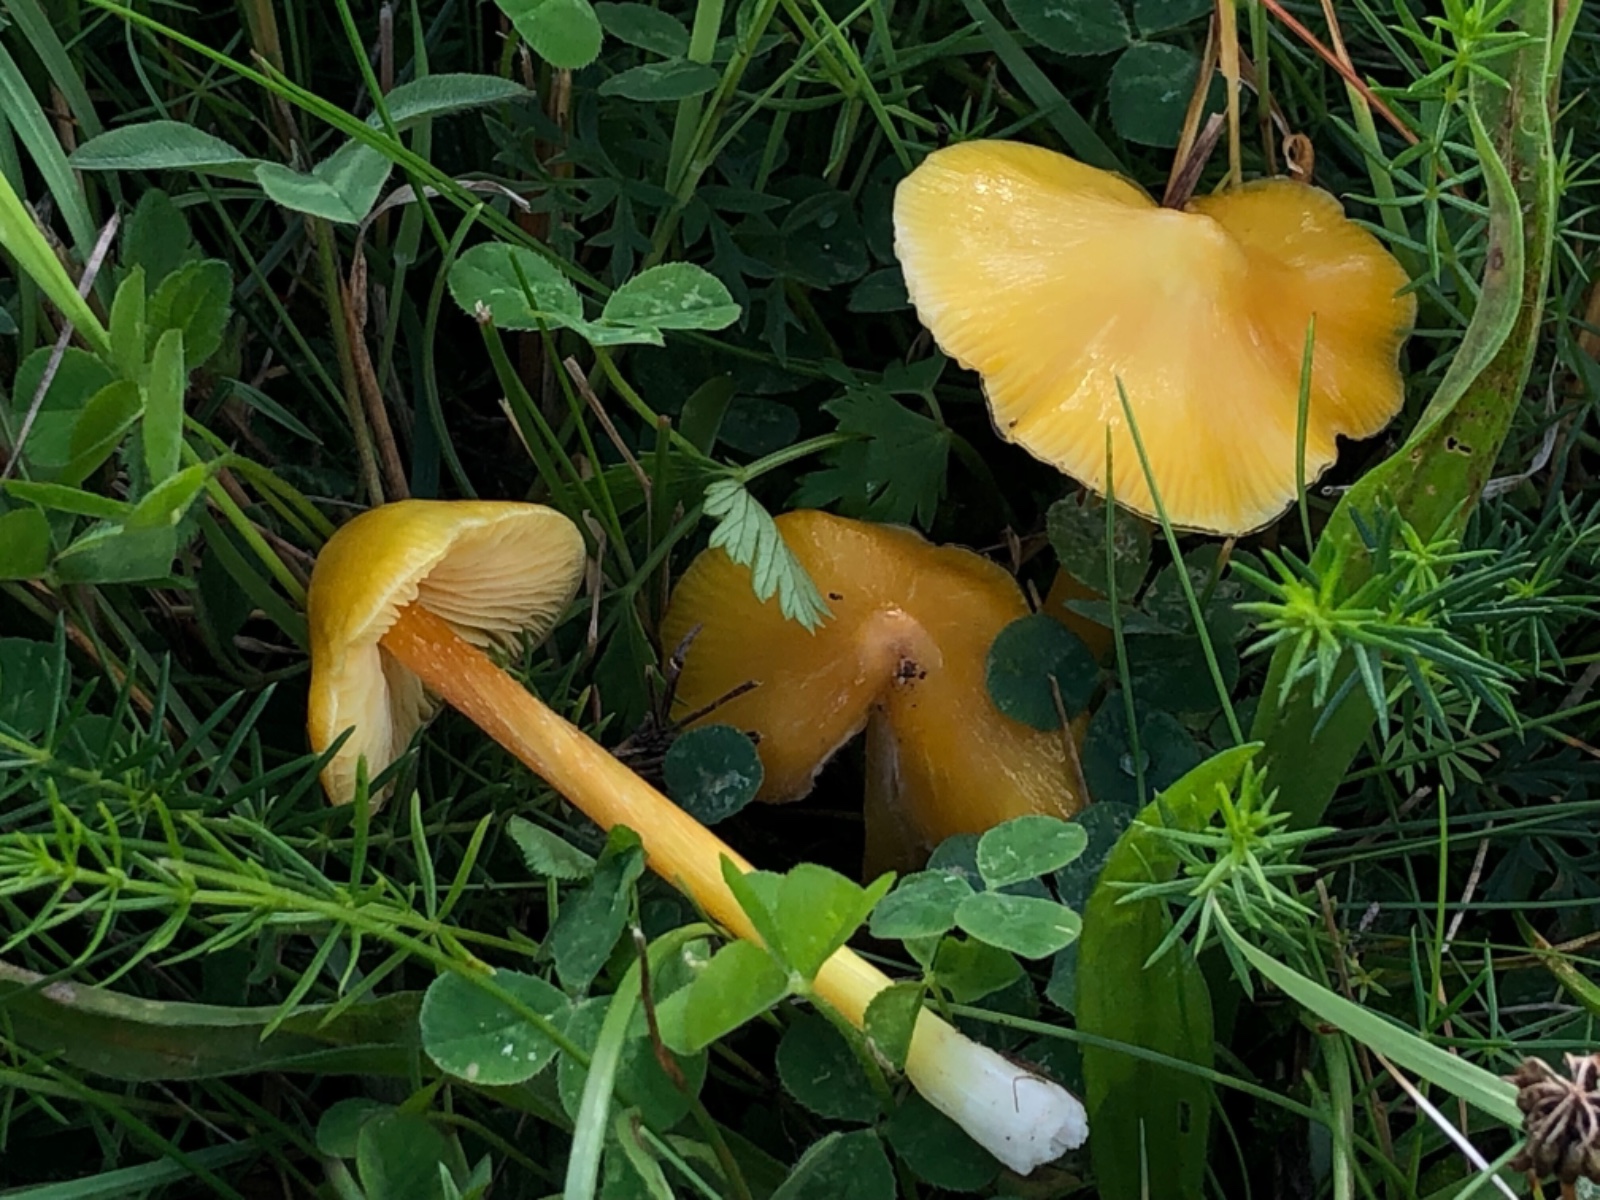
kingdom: Fungi
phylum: Basidiomycota
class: Agaricomycetes
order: Agaricales
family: Hygrophoraceae
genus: Hygrocybe
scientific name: Hygrocybe acutoconica
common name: spidspuklet vokshat
